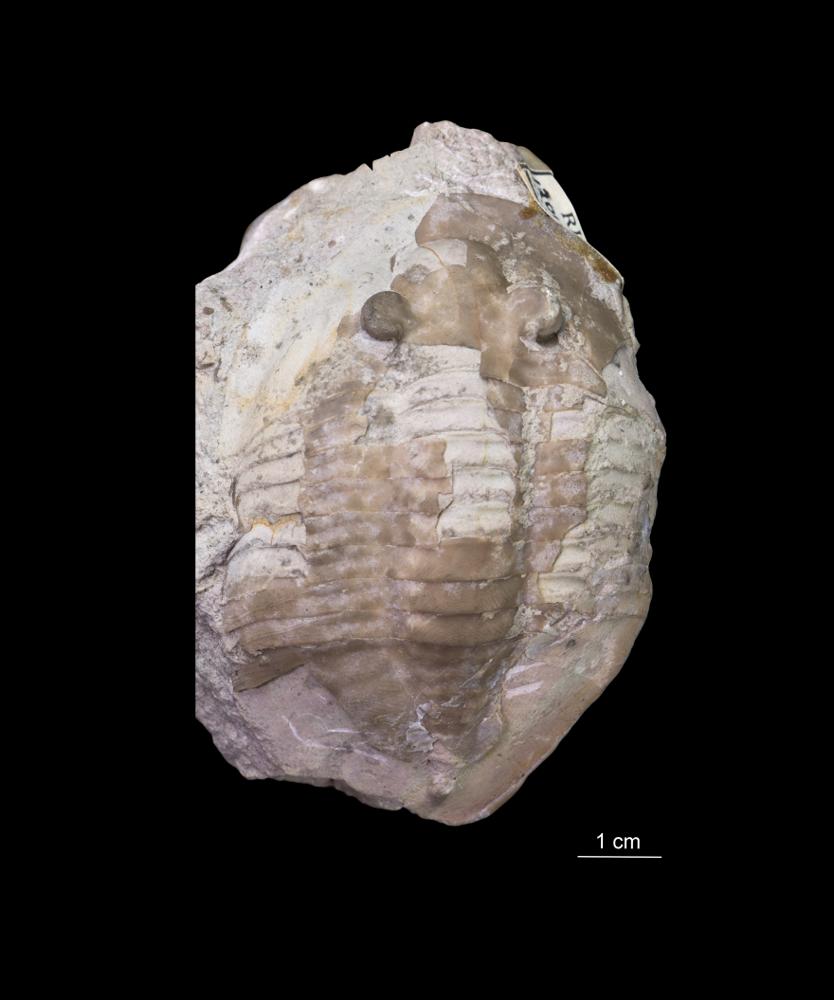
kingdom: Animalia
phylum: Arthropoda
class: Trilobita
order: Asaphida
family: Asaphidae
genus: Ptychopyge
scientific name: Ptychopyge
